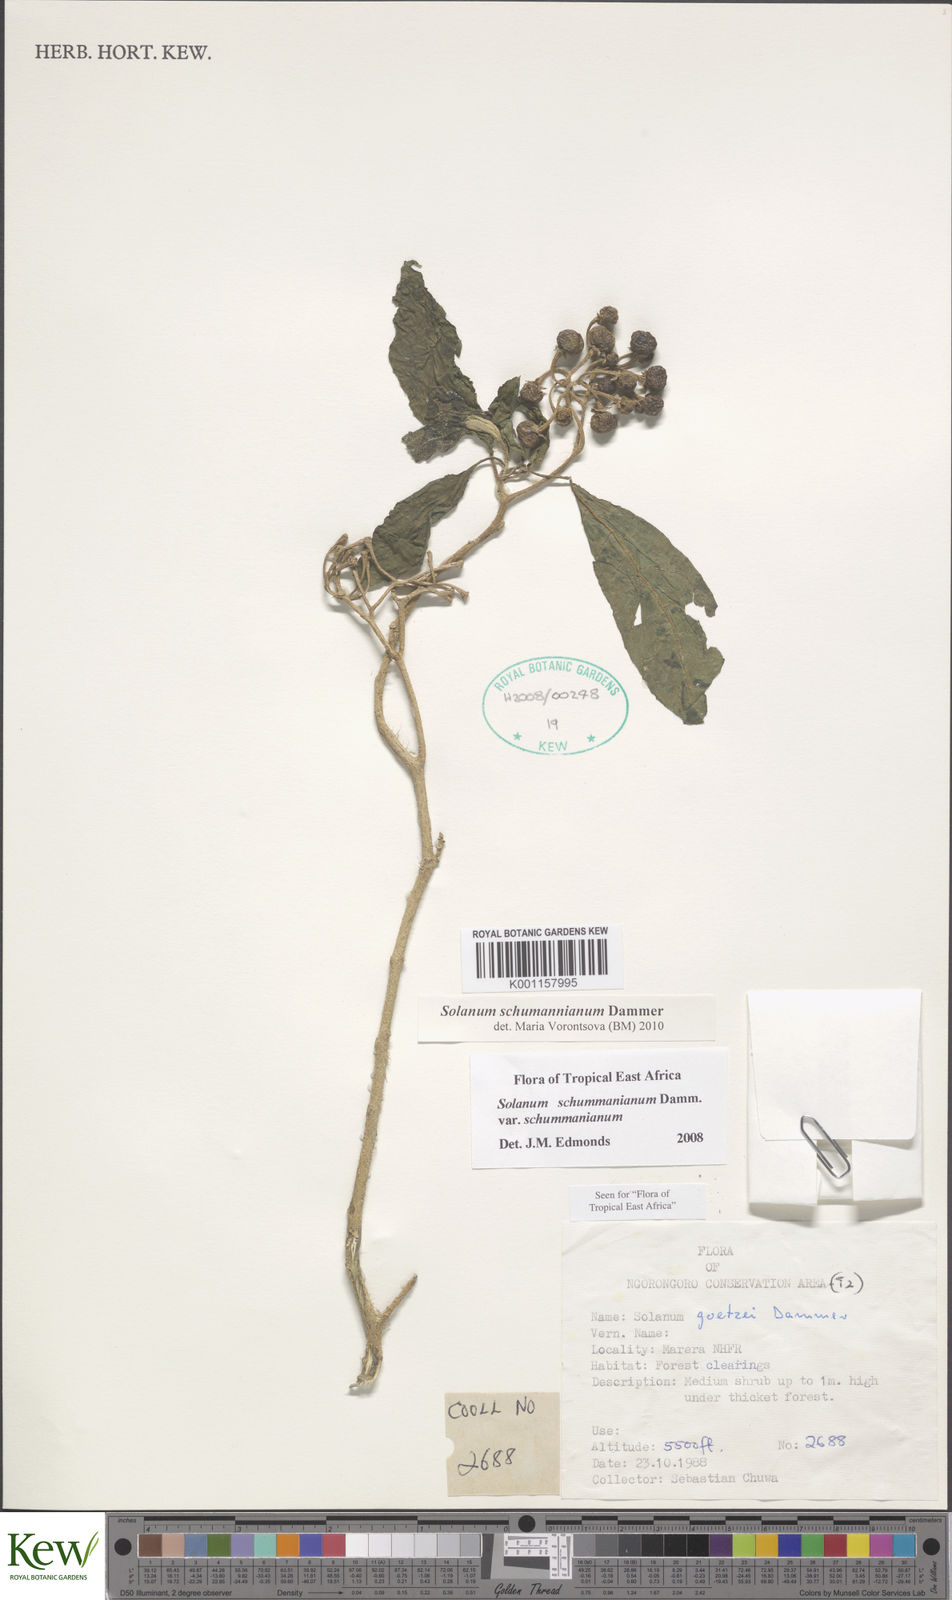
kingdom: Plantae
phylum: Tracheophyta
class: Magnoliopsida
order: Solanales
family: Solanaceae
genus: Solanum
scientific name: Solanum schumannianum
